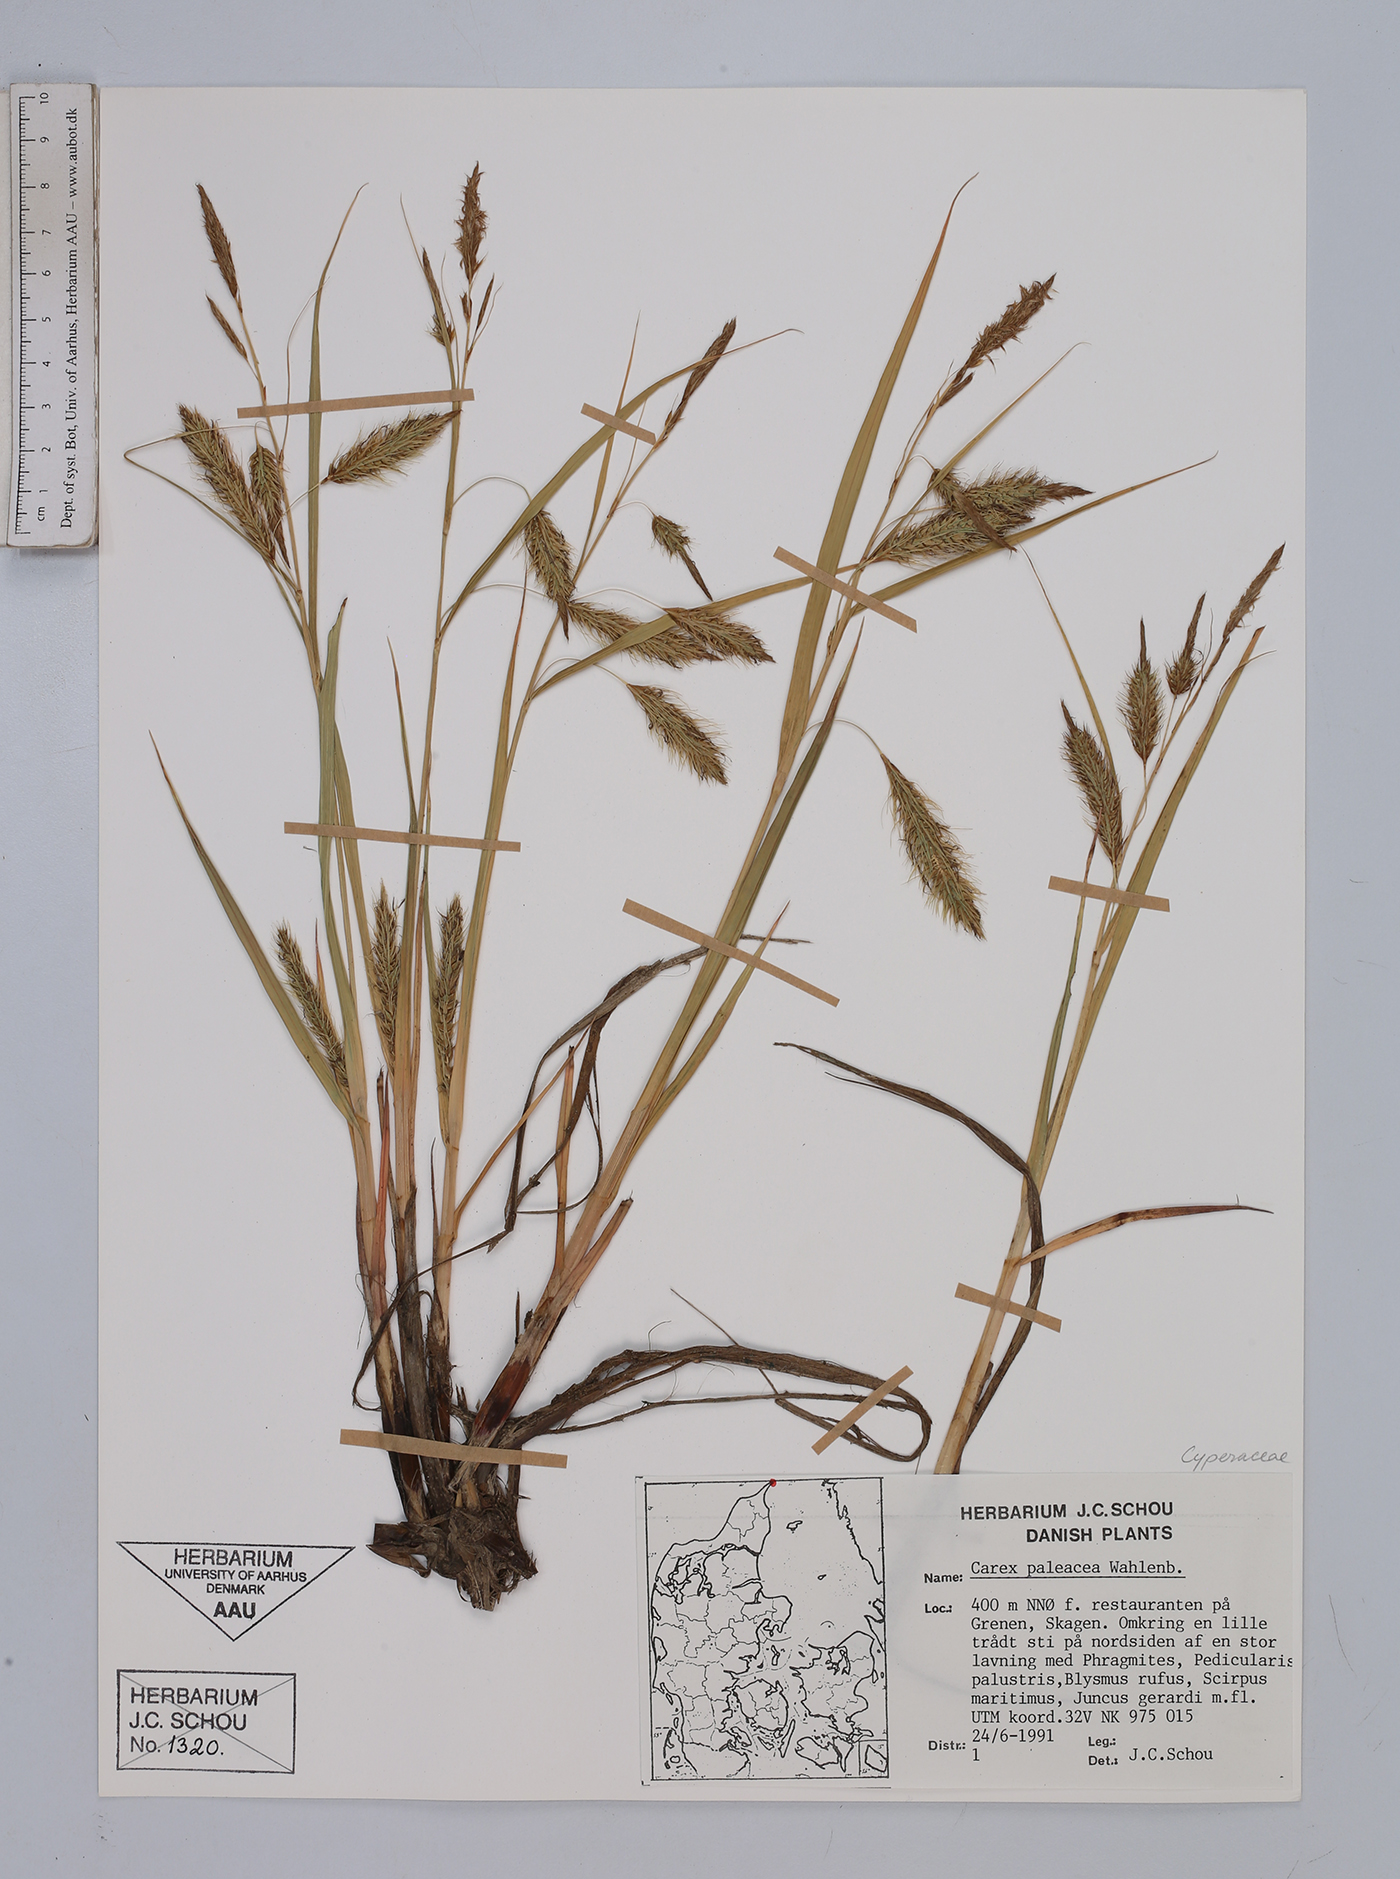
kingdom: Plantae
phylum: Tracheophyta
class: Liliopsida
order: Poales
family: Cyperaceae
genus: Carex
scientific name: Carex paleacea
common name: Chaffy sedge
